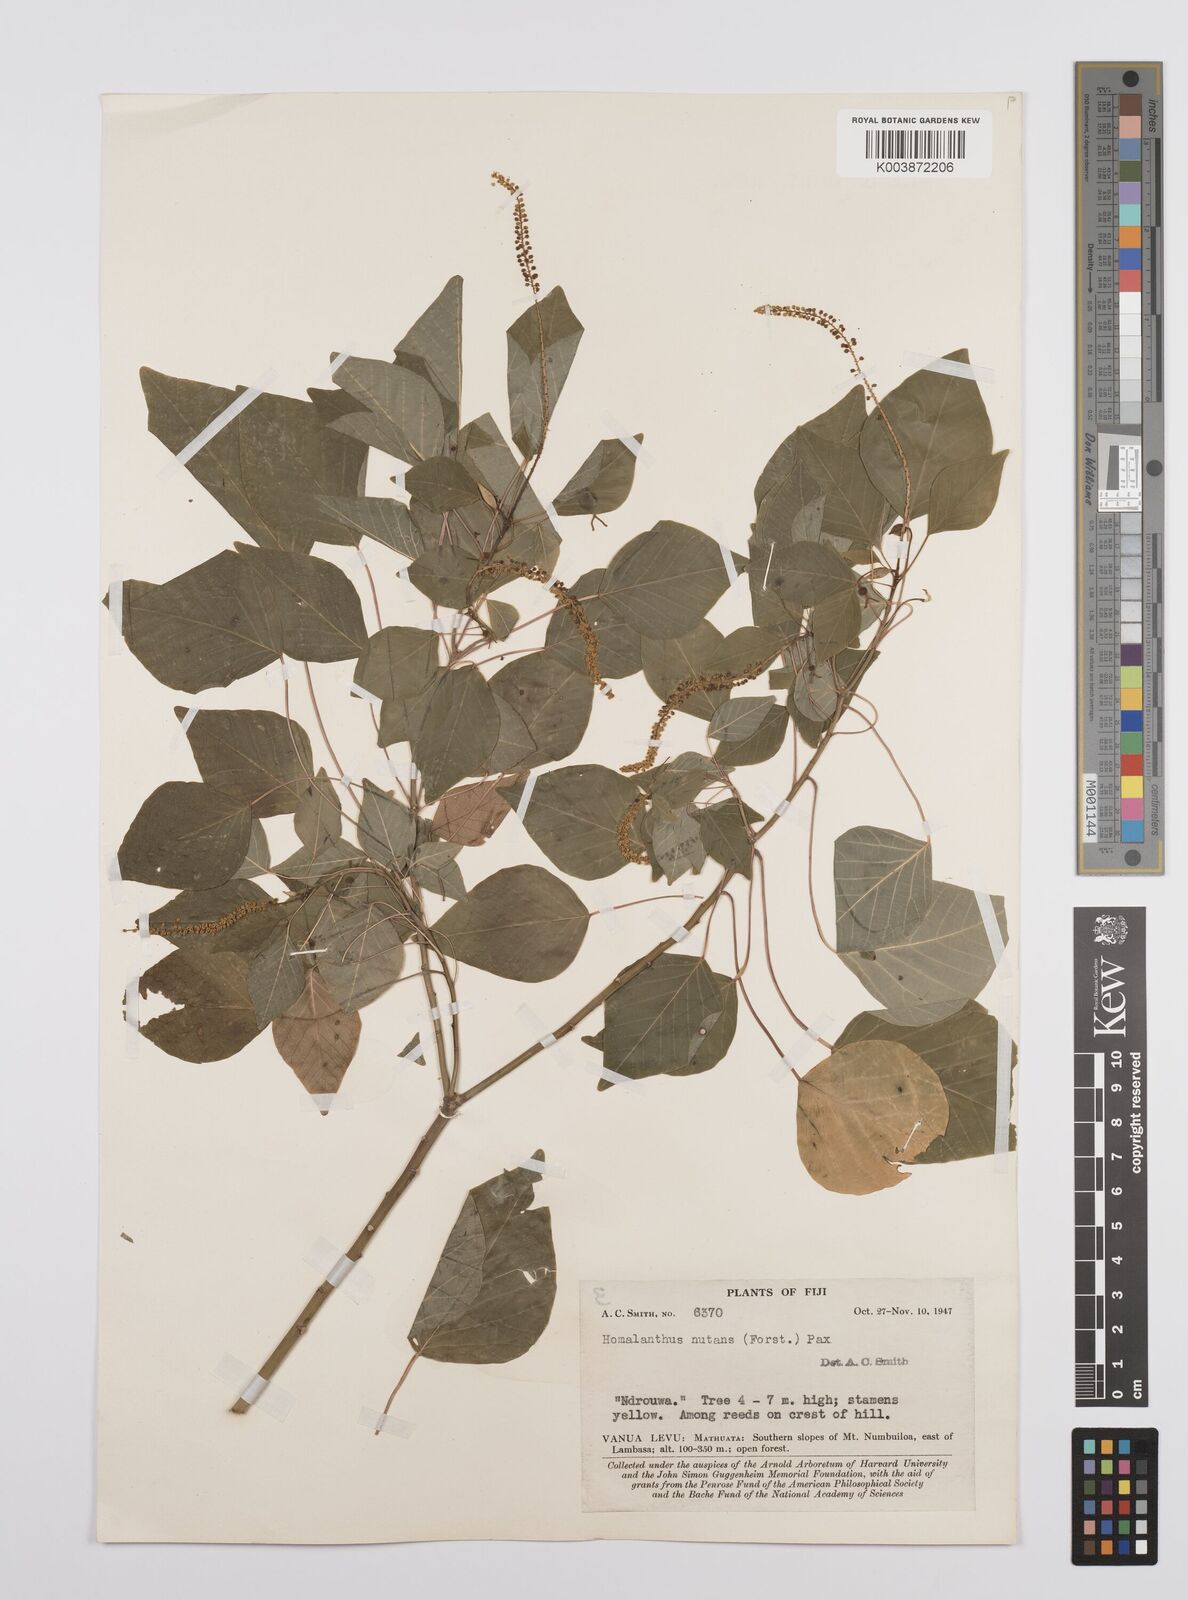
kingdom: Plantae
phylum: Tracheophyta
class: Magnoliopsida
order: Malpighiales
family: Euphorbiaceae
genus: Homalanthus
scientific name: Homalanthus nutans
